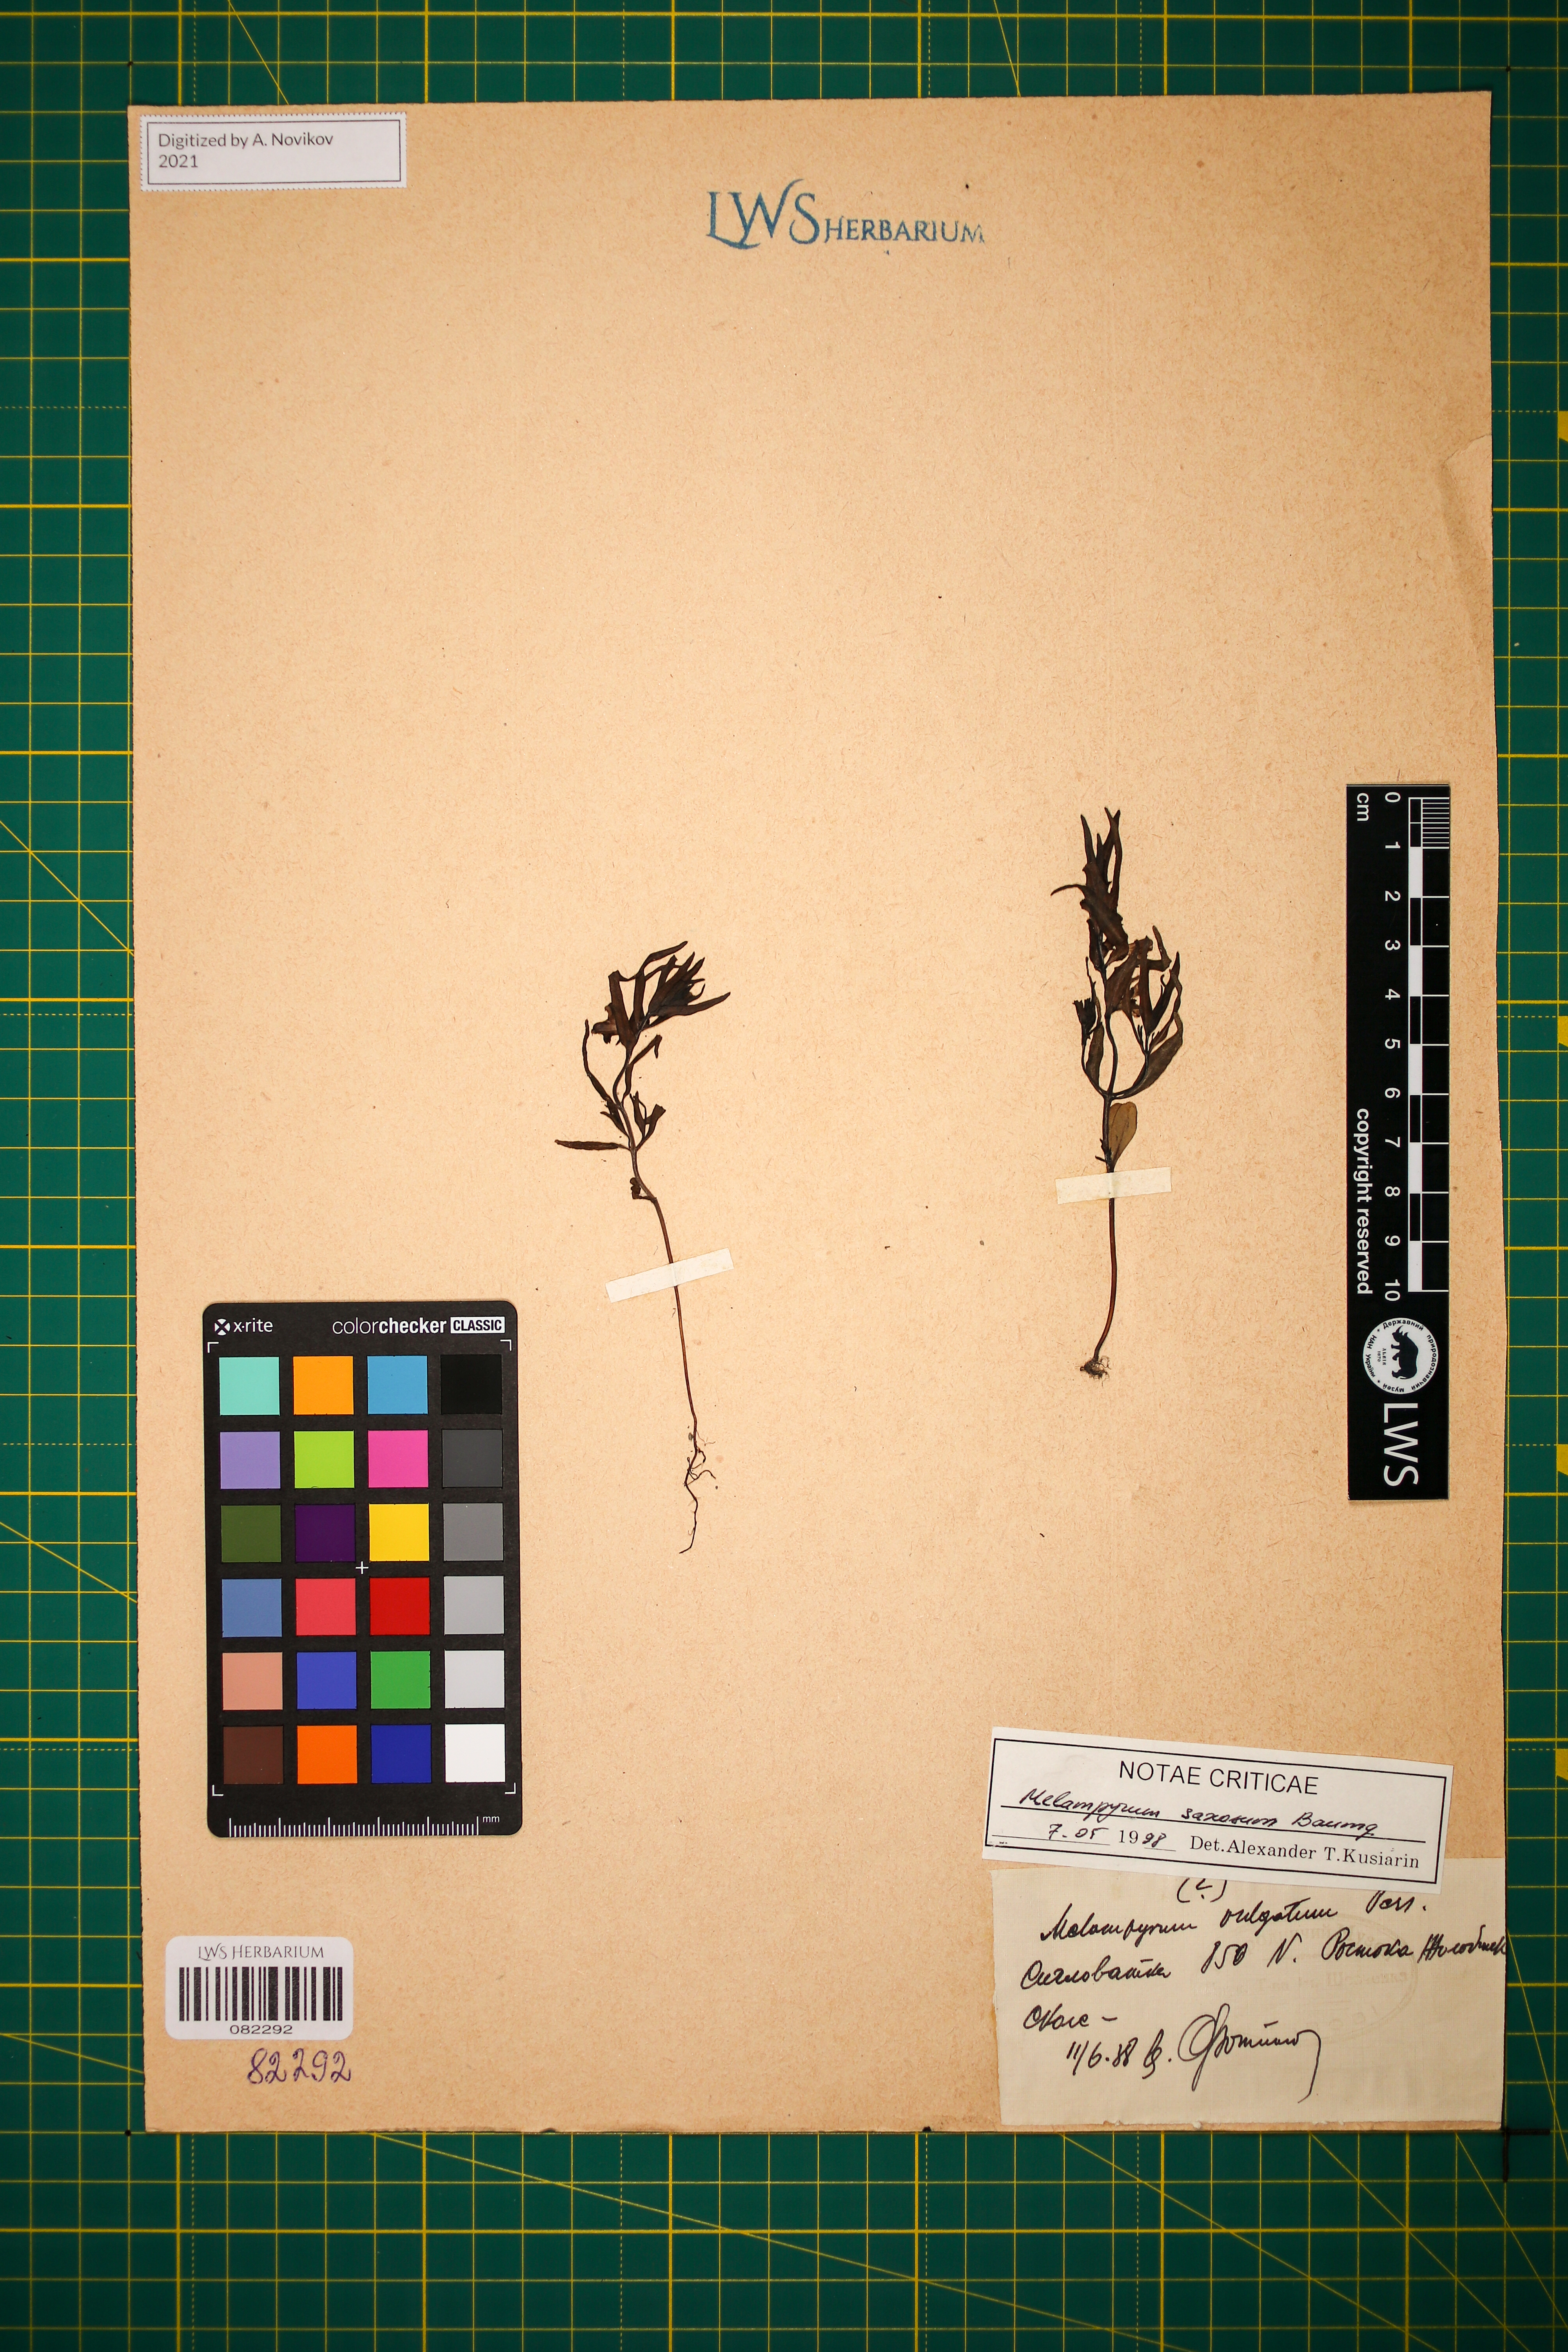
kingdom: Plantae
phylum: Tracheophyta
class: Magnoliopsida
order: Lamiales
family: Orobanchaceae
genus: Melampyrum
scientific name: Melampyrum saxosum
